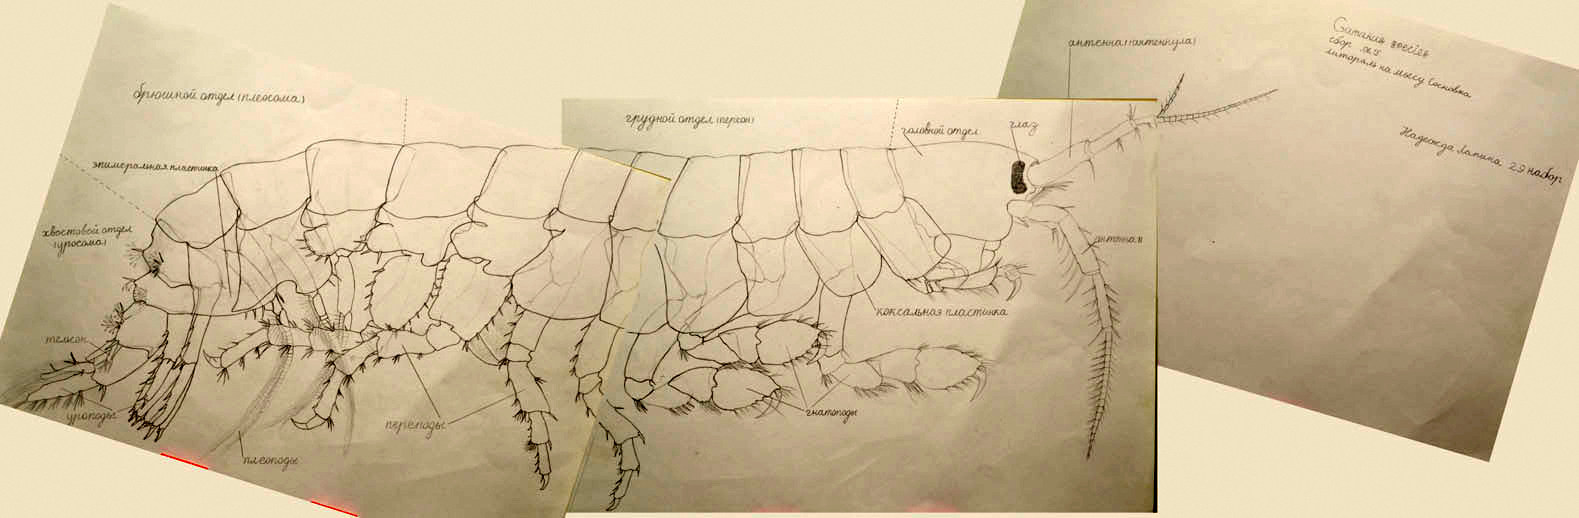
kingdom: Animalia
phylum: Arthropoda
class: Malacostraca
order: Amphipoda
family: Gammaridae
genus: Gammarus
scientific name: Gammarus
